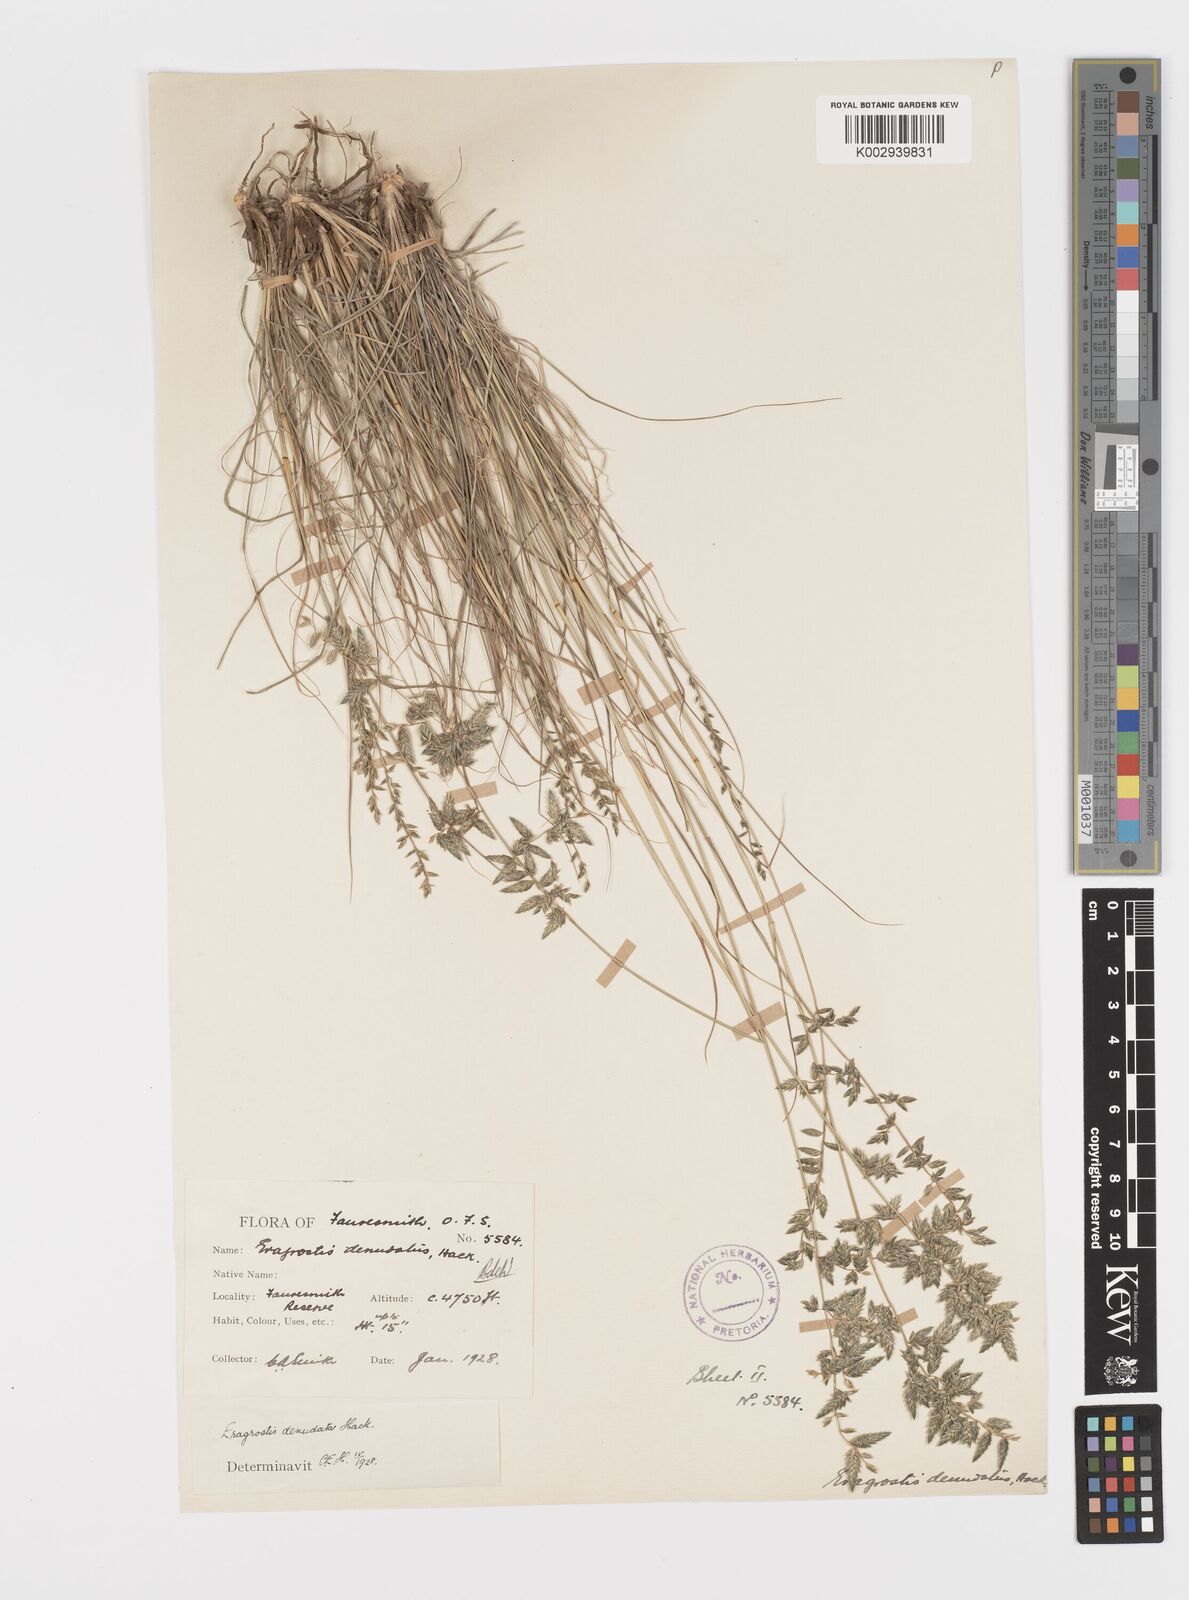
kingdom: Plantae
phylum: Tracheophyta
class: Liliopsida
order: Poales
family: Poaceae
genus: Eragrostis
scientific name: Eragrostis nindensis
